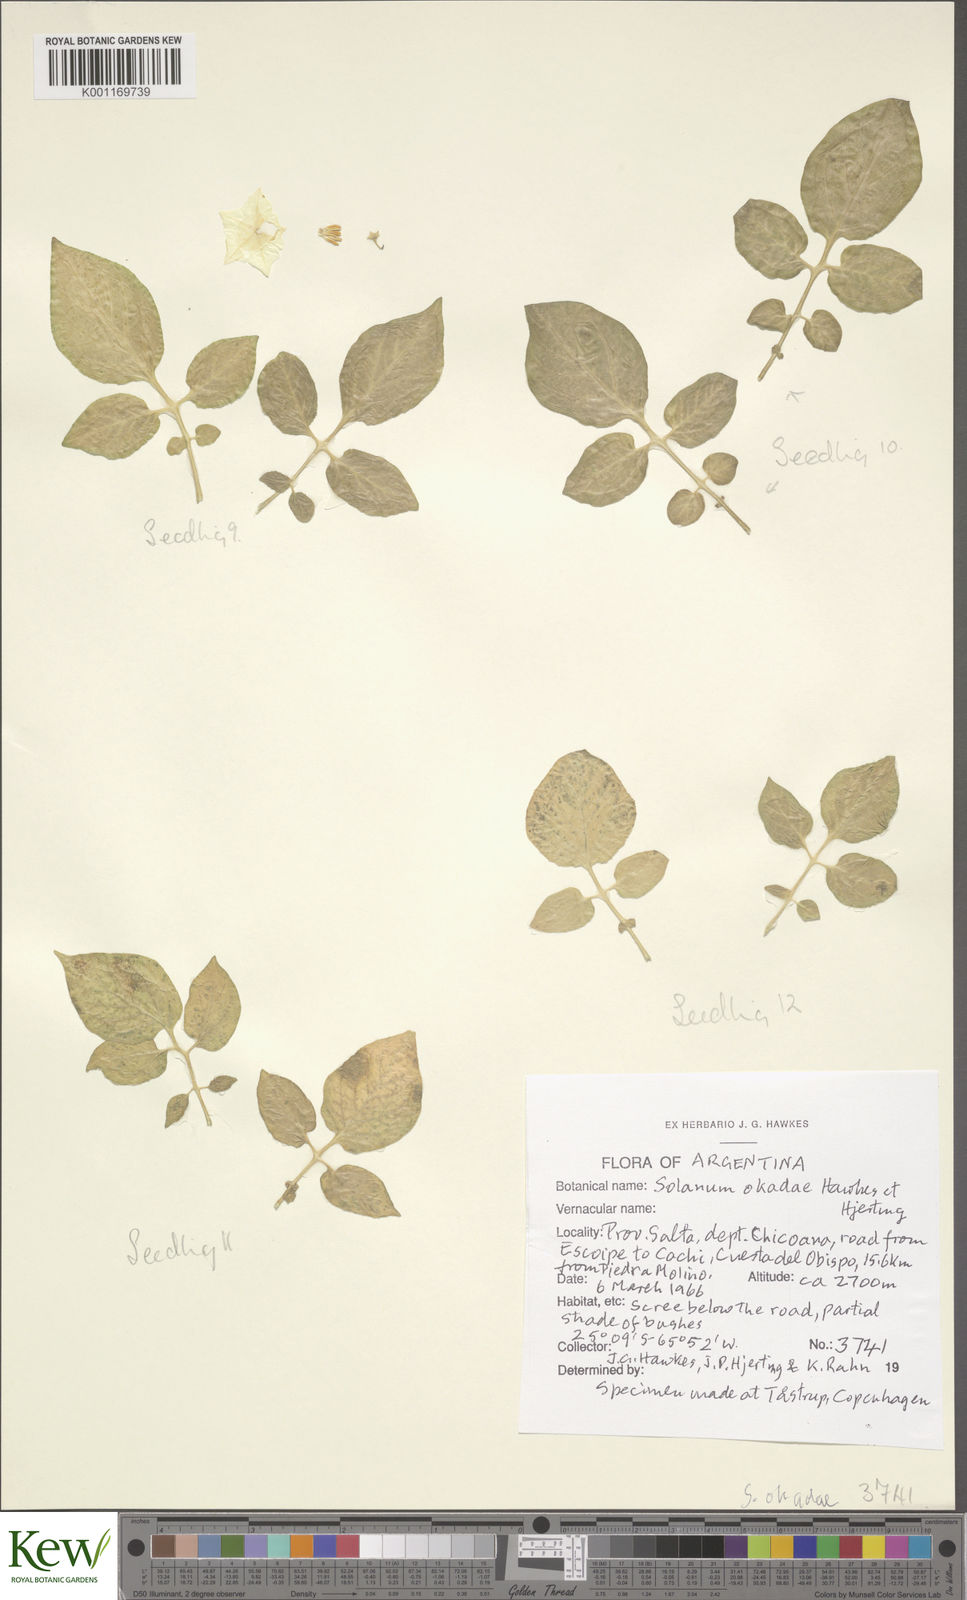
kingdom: Plantae
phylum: Tracheophyta
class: Magnoliopsida
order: Solanales
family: Solanaceae
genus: Solanum
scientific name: Solanum okadae
